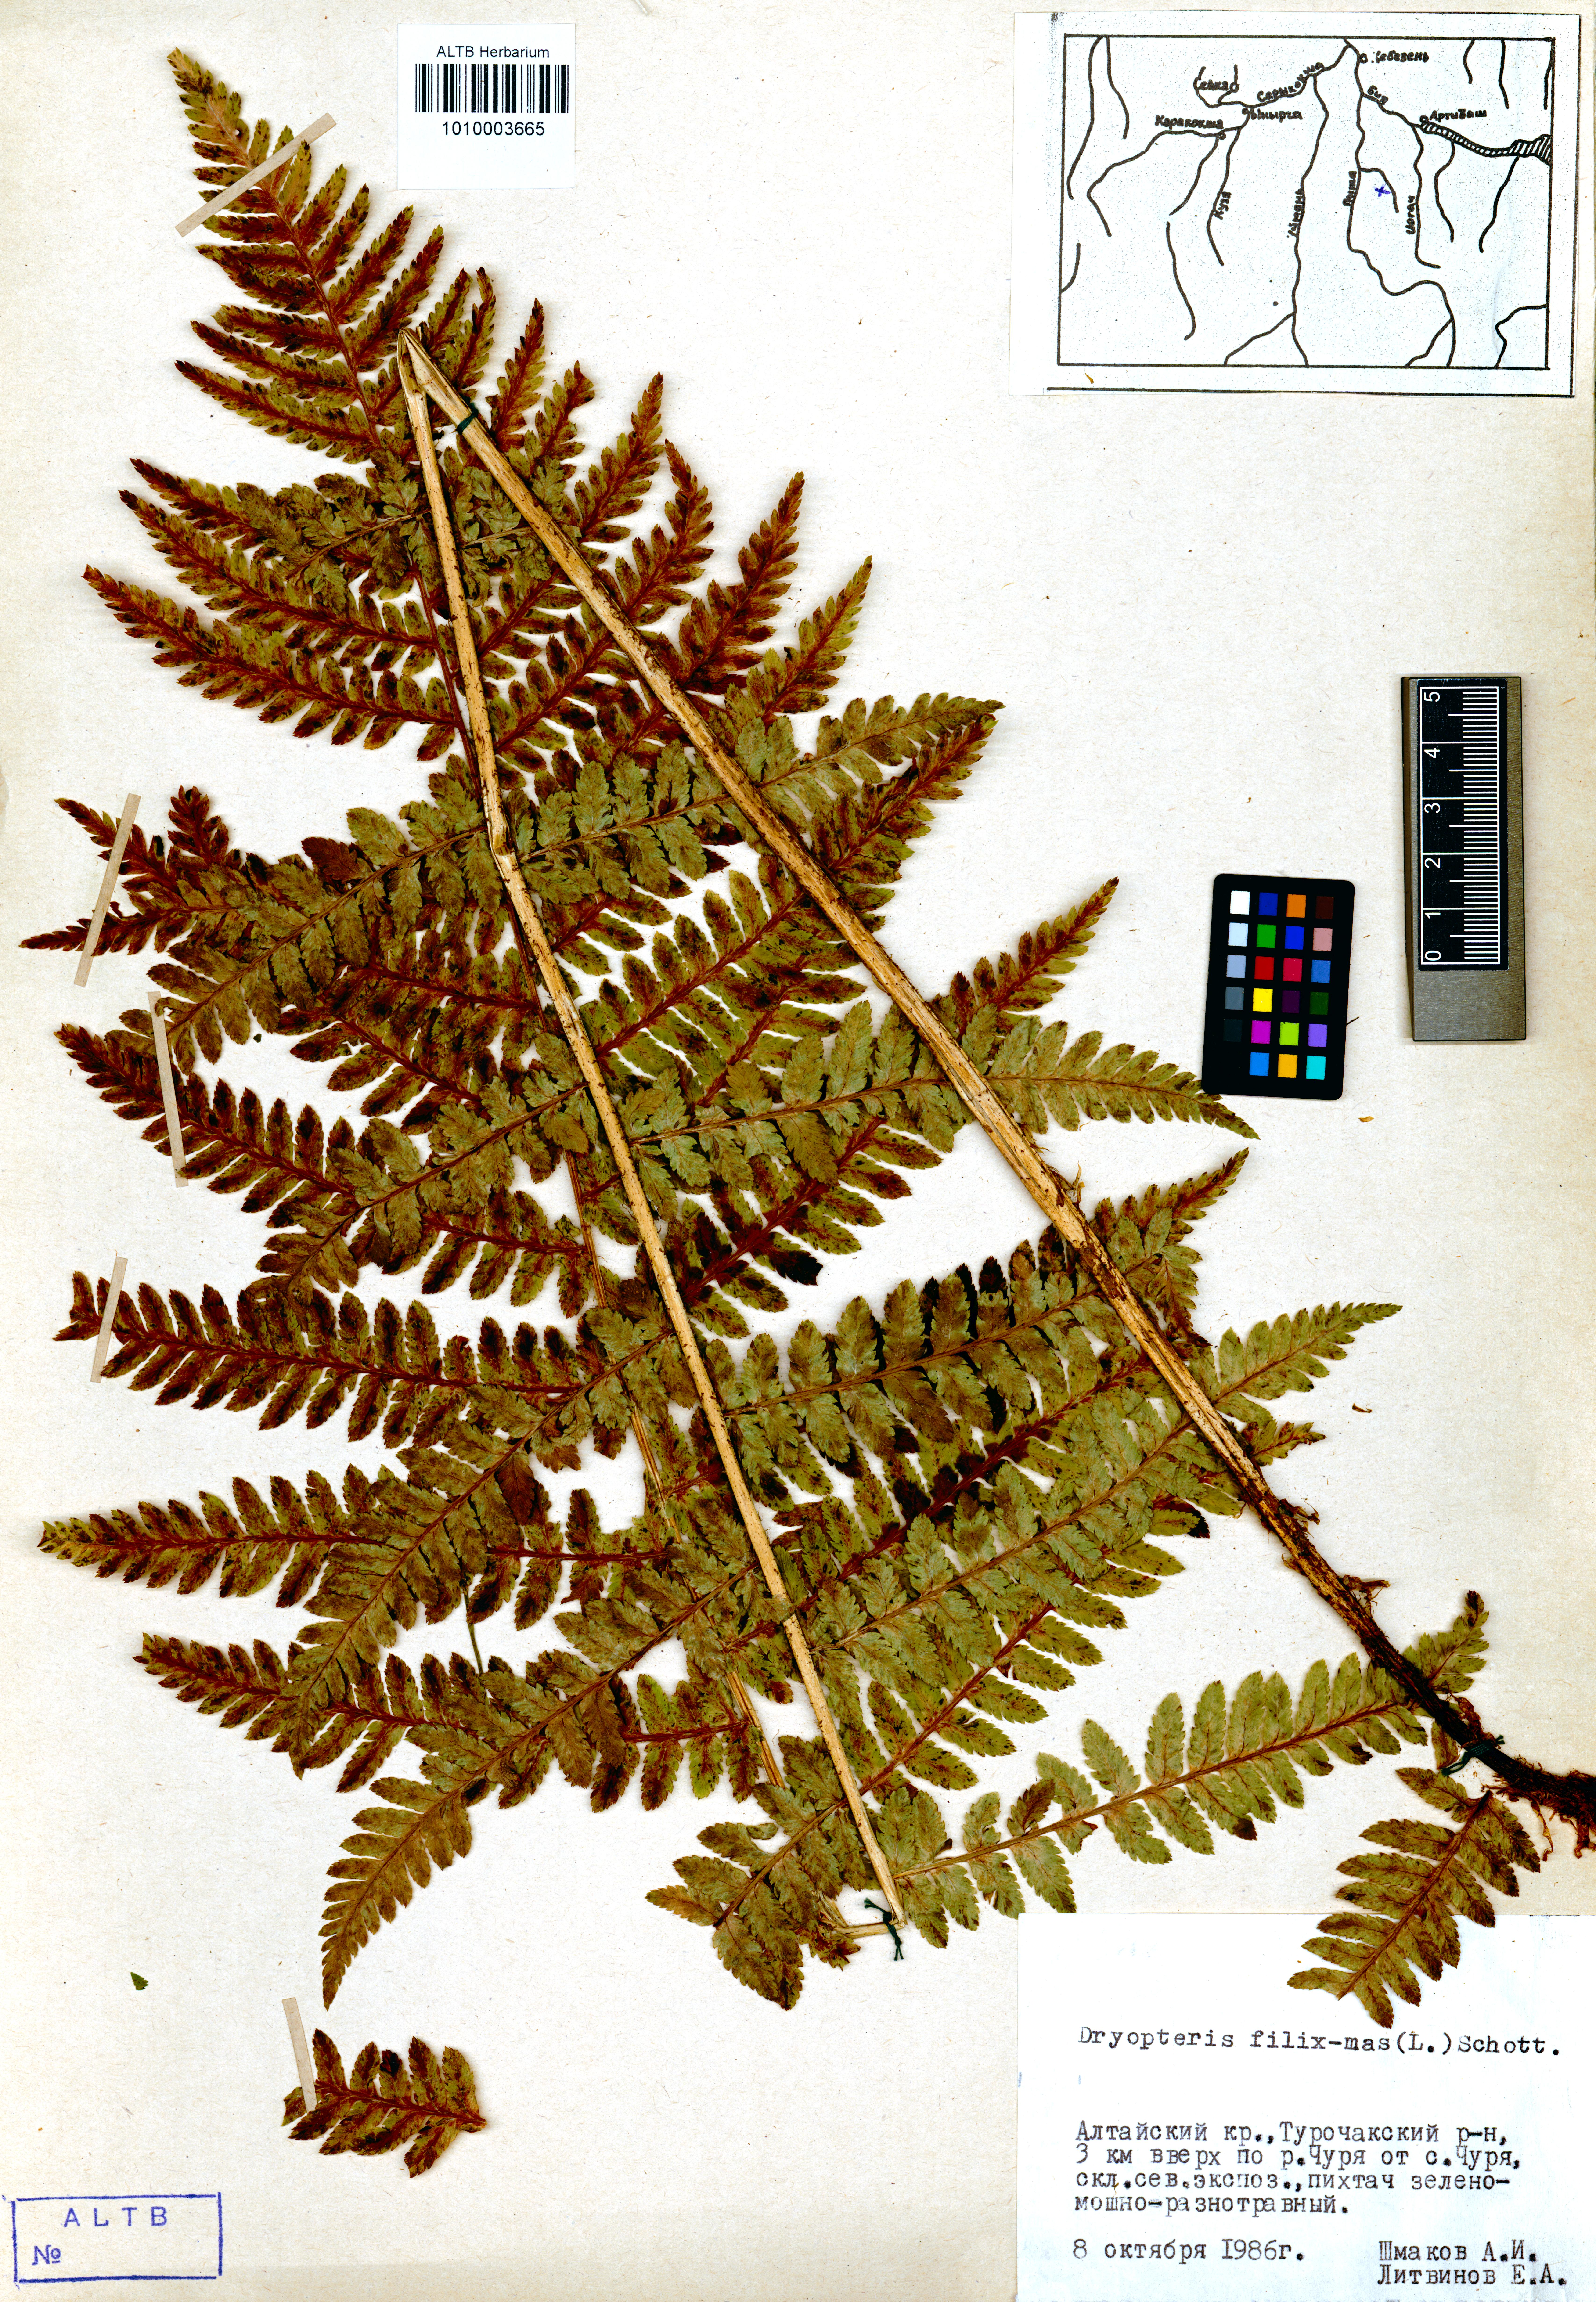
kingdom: Plantae
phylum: Tracheophyta
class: Polypodiopsida
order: Polypodiales
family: Dryopteridaceae
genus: Dryopteris
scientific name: Dryopteris filix-mas
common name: Male fern
